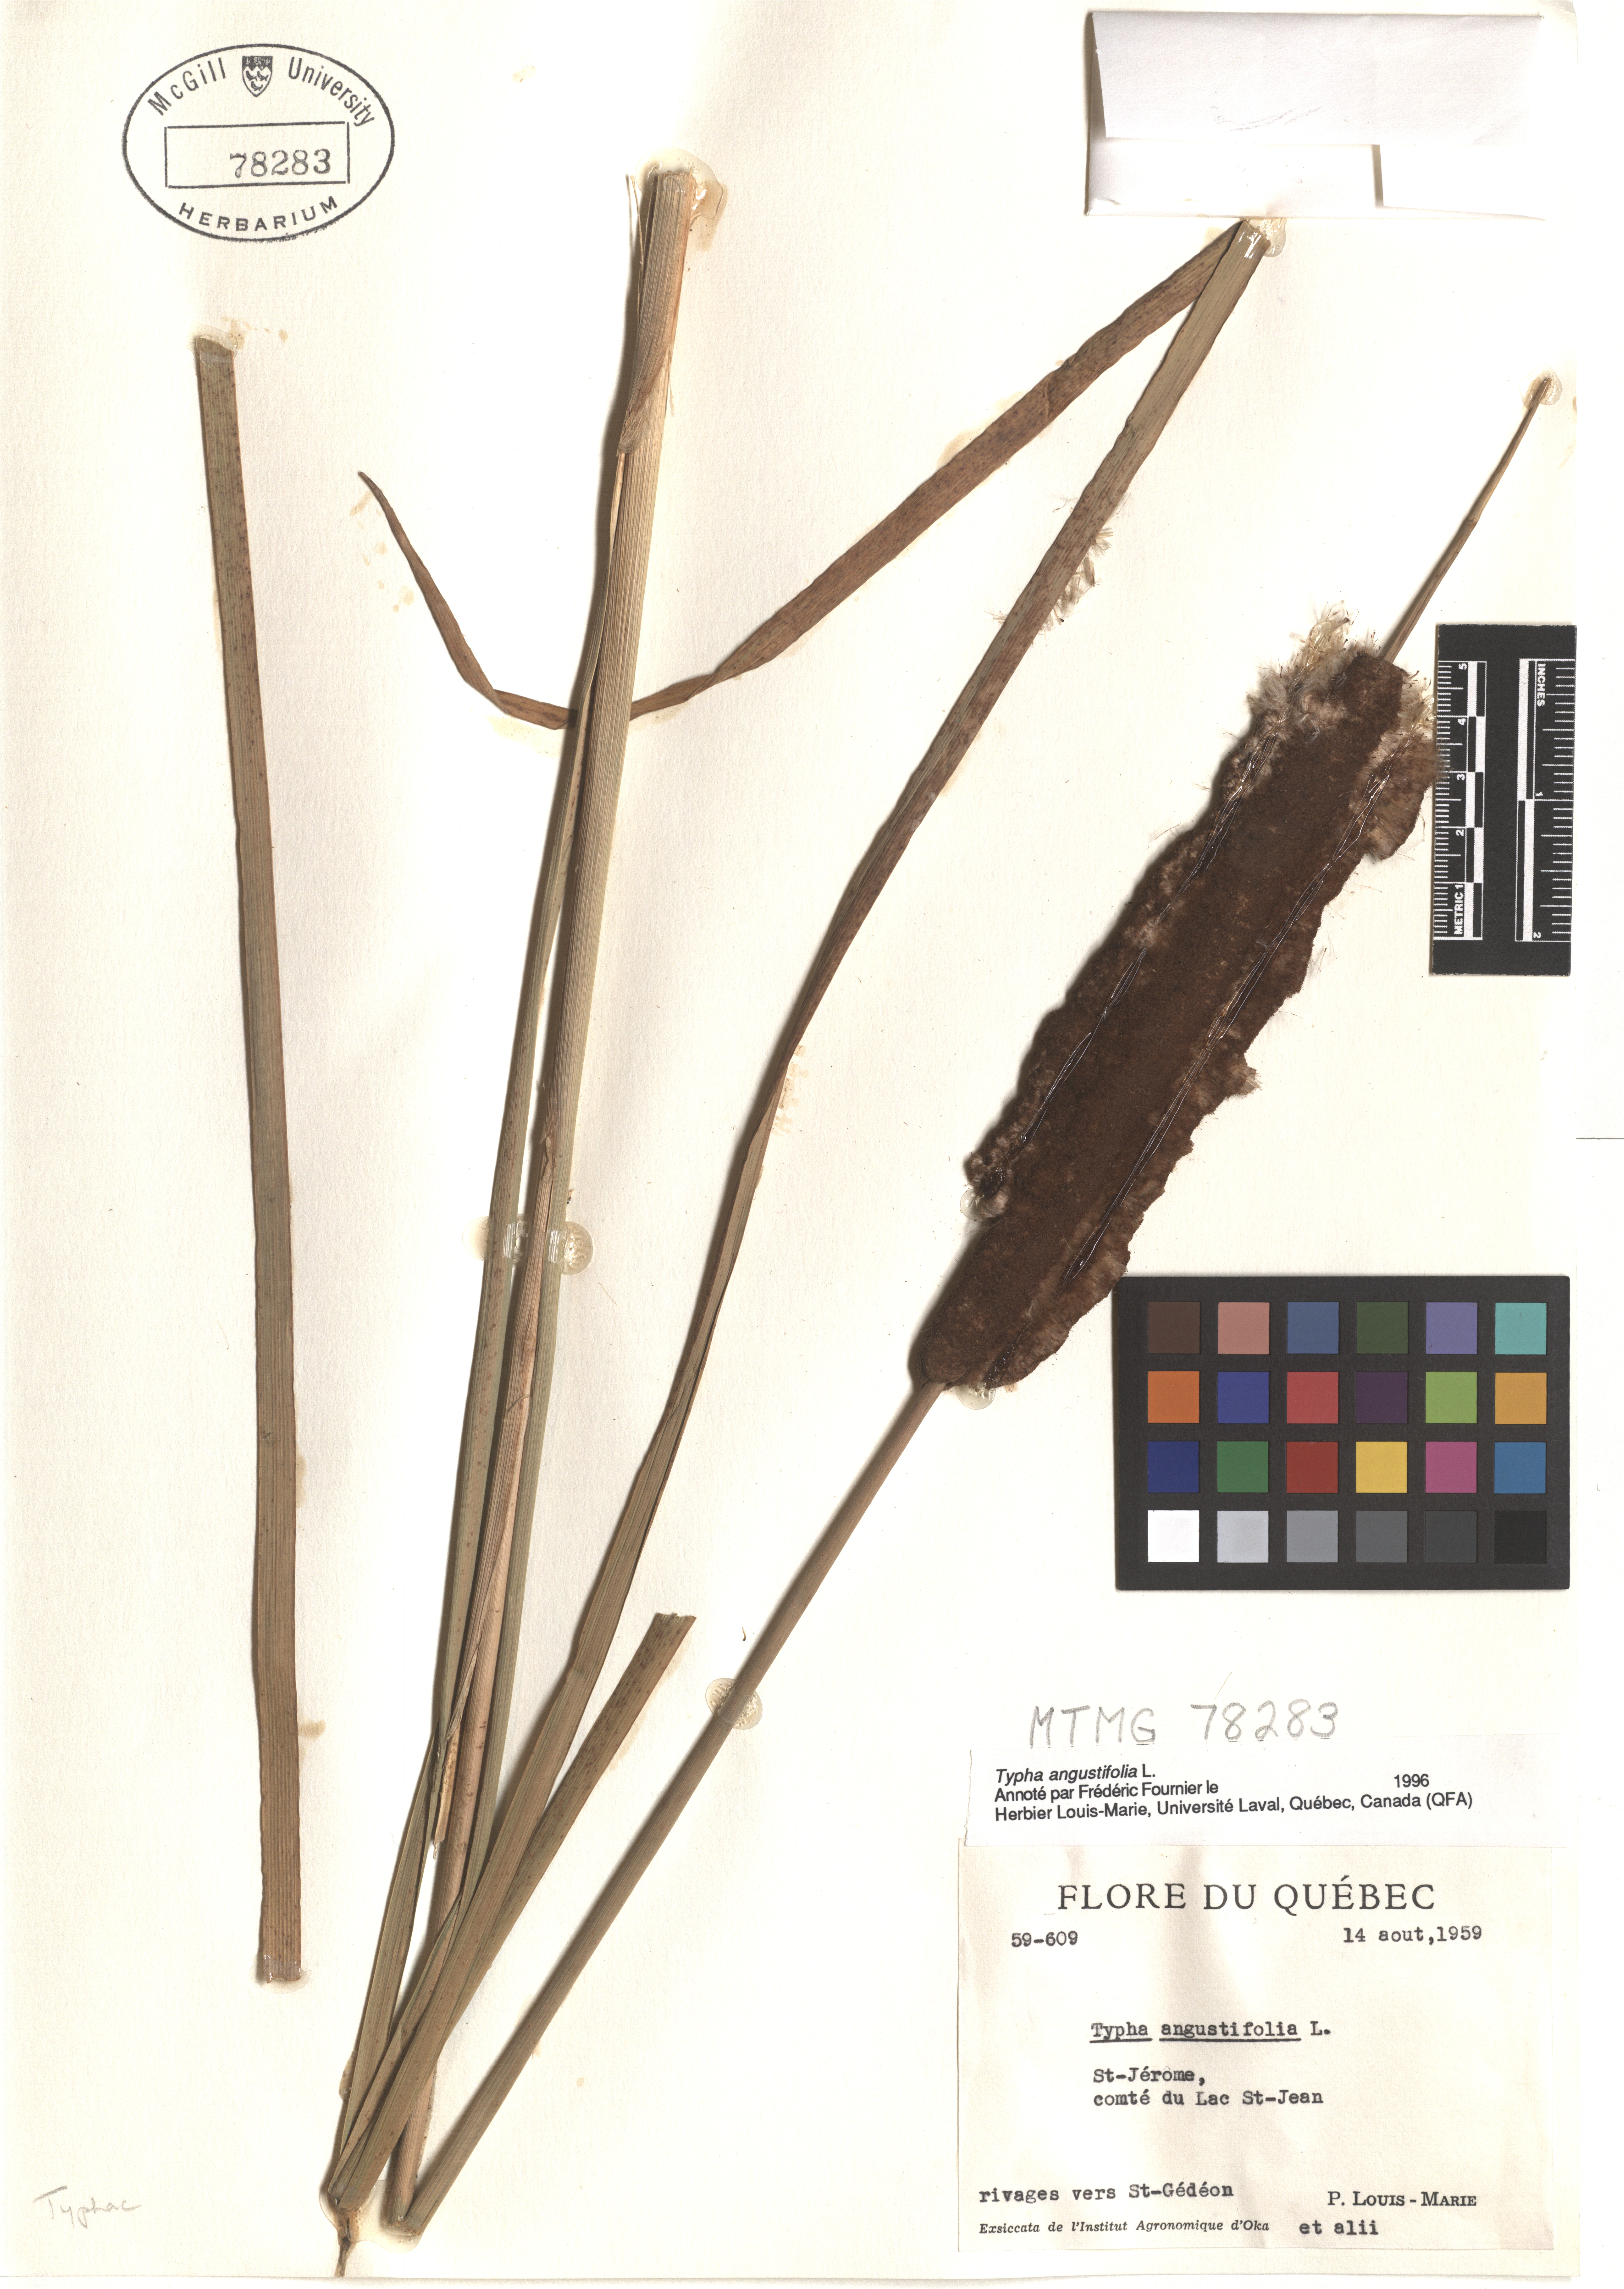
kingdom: Plantae
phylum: Tracheophyta
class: Liliopsida
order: Poales
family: Typhaceae
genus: Typha
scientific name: Typha angustifolia
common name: Lesser bulrush
